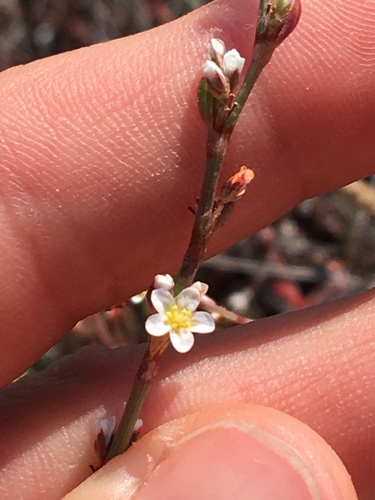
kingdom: Plantae
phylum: Tracheophyta
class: Magnoliopsida
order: Caryophyllales
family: Polygonaceae
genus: Polygonum
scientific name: Polygonum aviculare
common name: Prostrate knotweed
